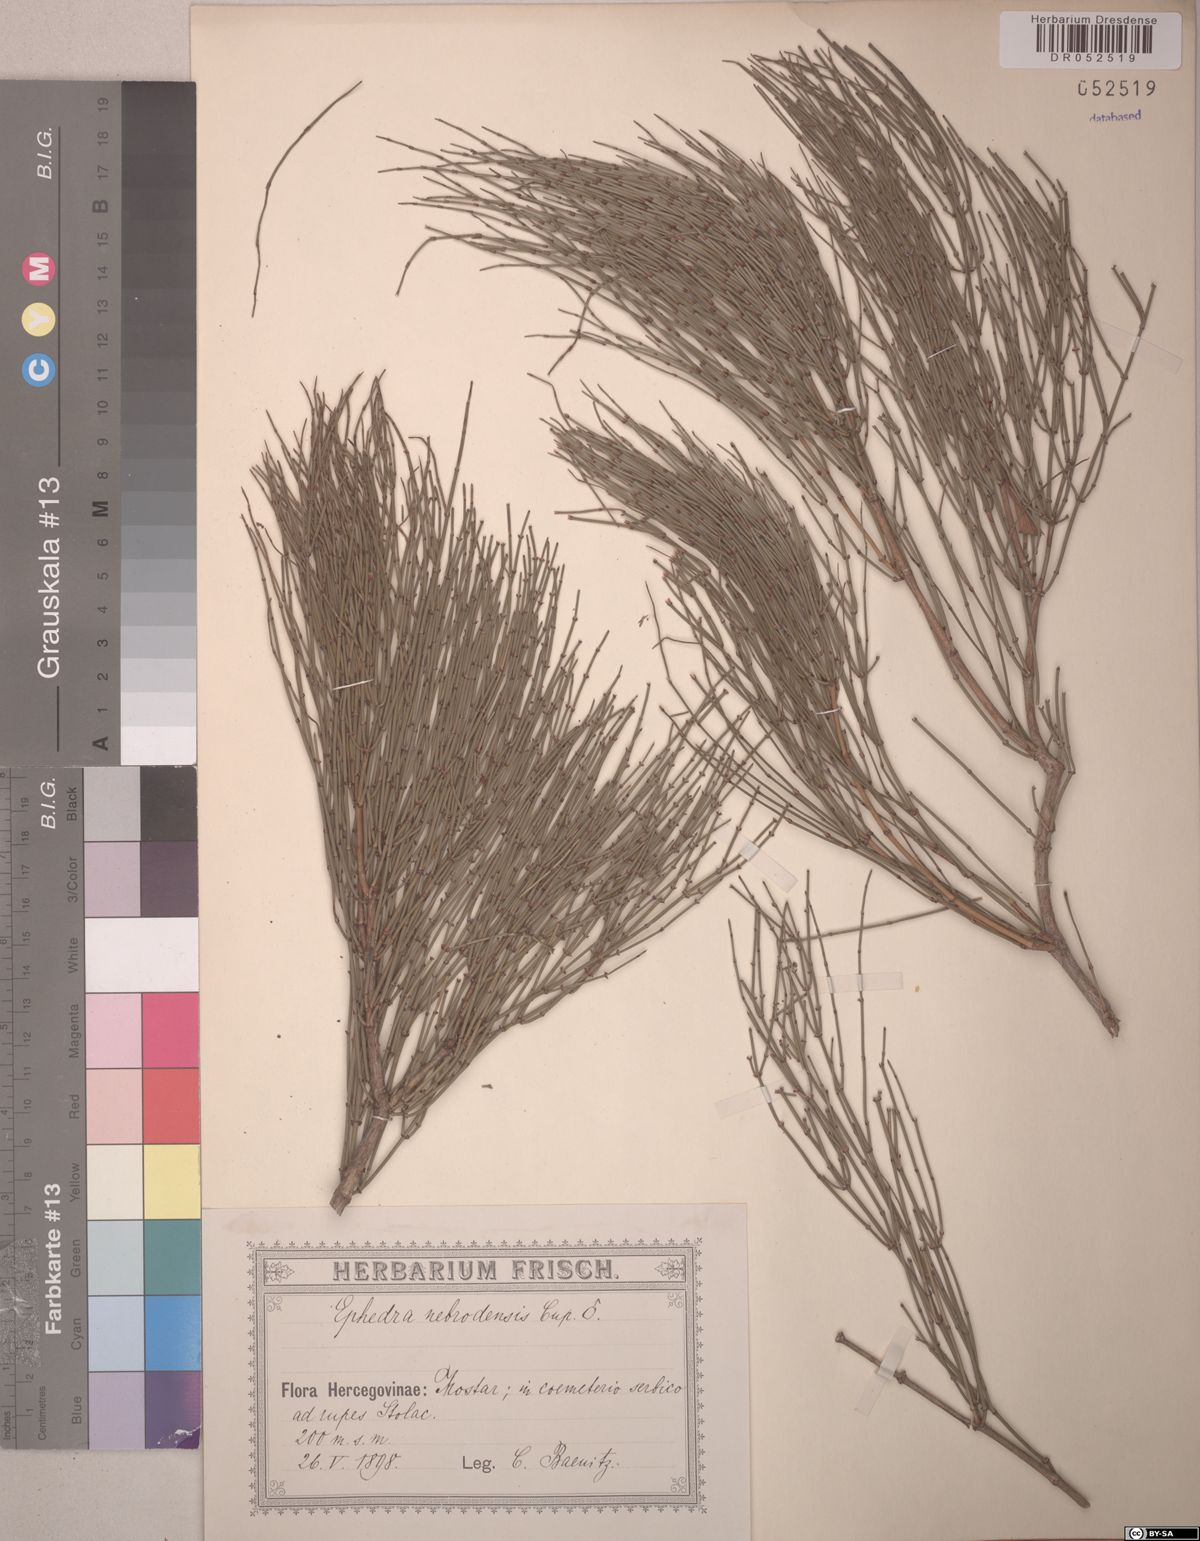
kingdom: Plantae
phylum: Tracheophyta
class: Gnetopsida
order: Ephedrales
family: Ephedraceae
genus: Ephedra
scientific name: Ephedra foeminea
